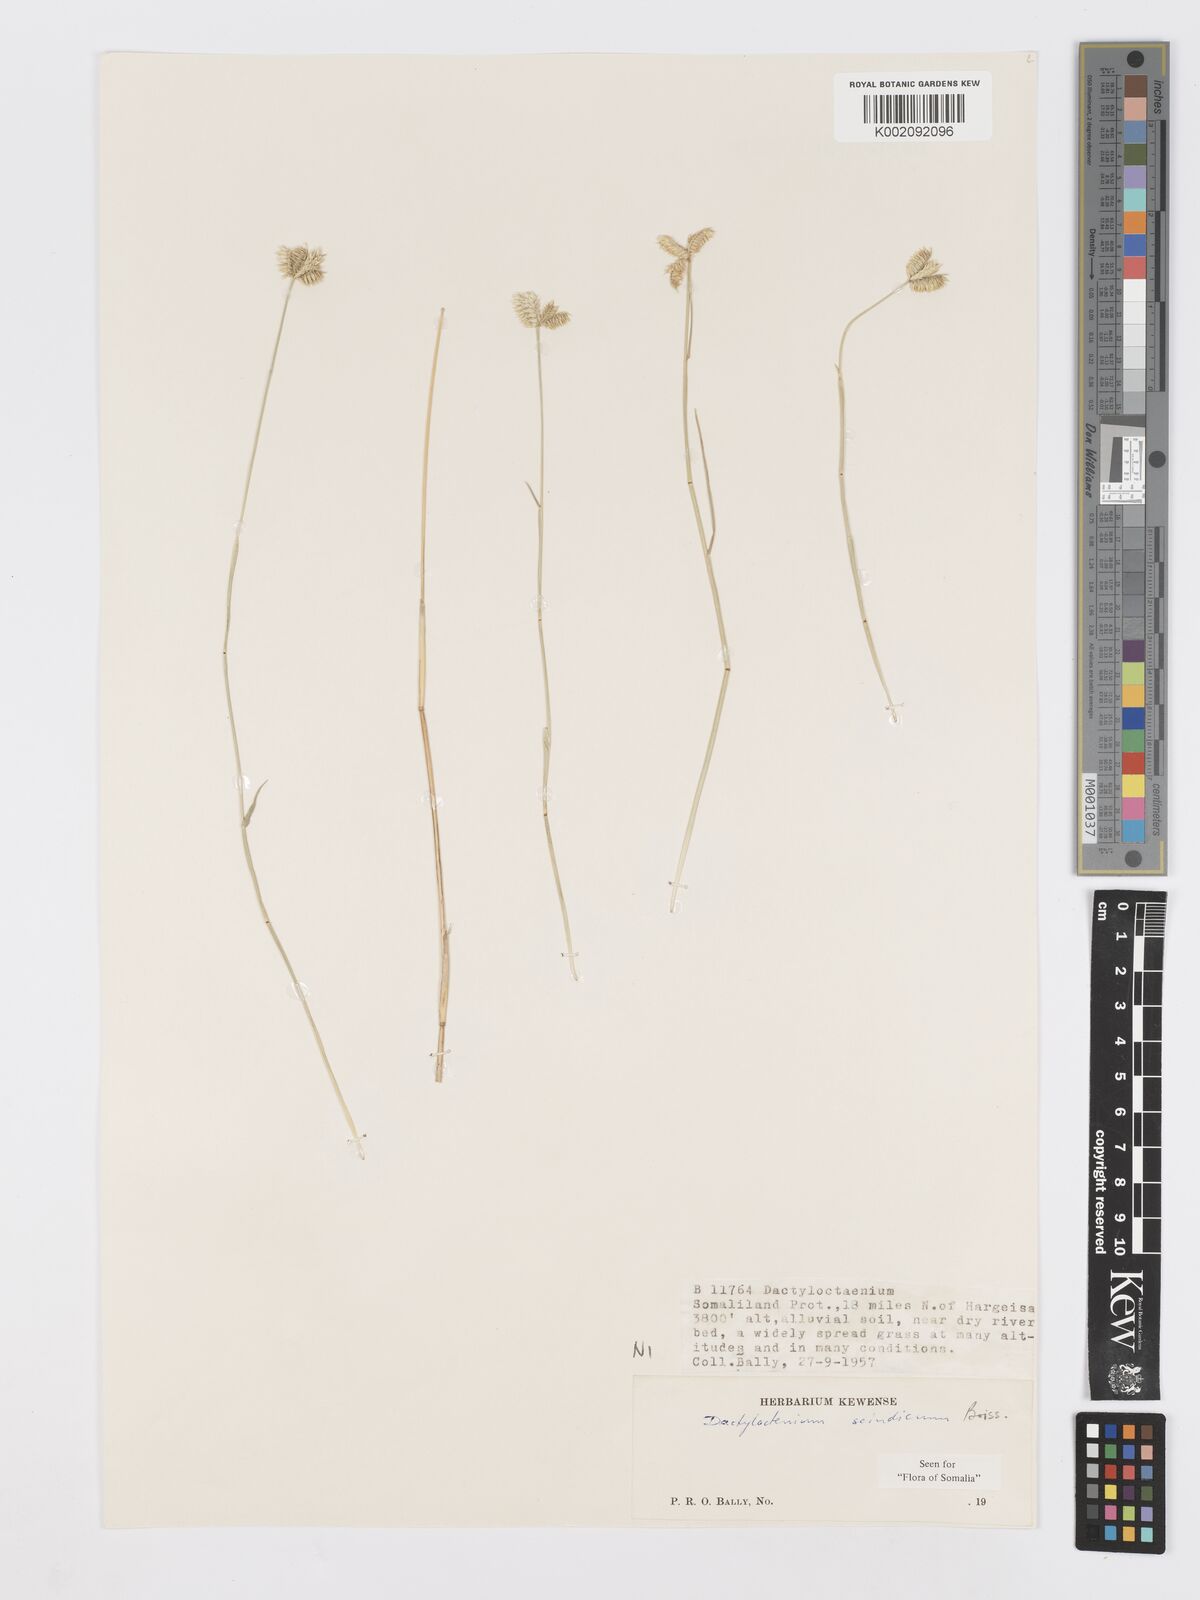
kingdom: Plantae
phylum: Tracheophyta
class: Liliopsida
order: Poales
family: Poaceae
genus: Dactyloctenium
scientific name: Dactyloctenium scindicum
